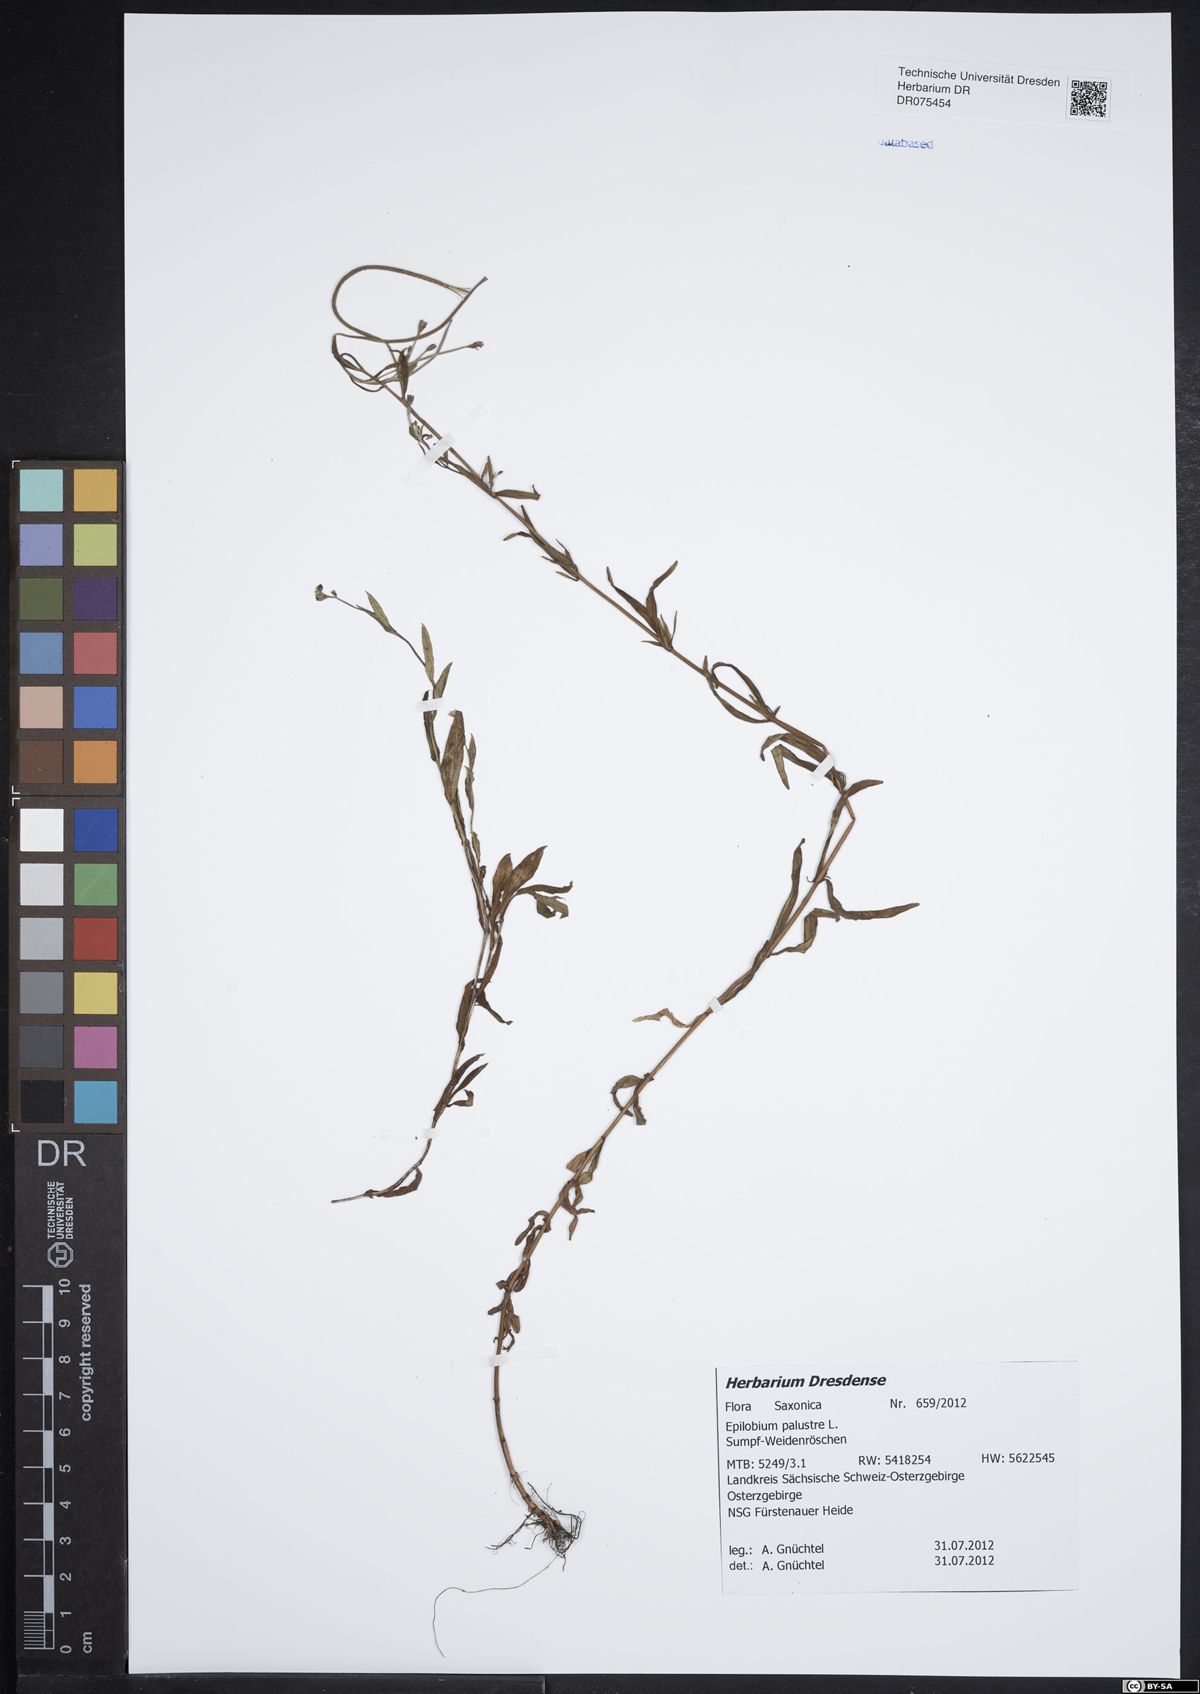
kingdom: Plantae
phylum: Tracheophyta
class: Magnoliopsida
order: Myrtales
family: Onagraceae
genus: Epilobium
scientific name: Epilobium palustre
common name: Marsh willowherb
